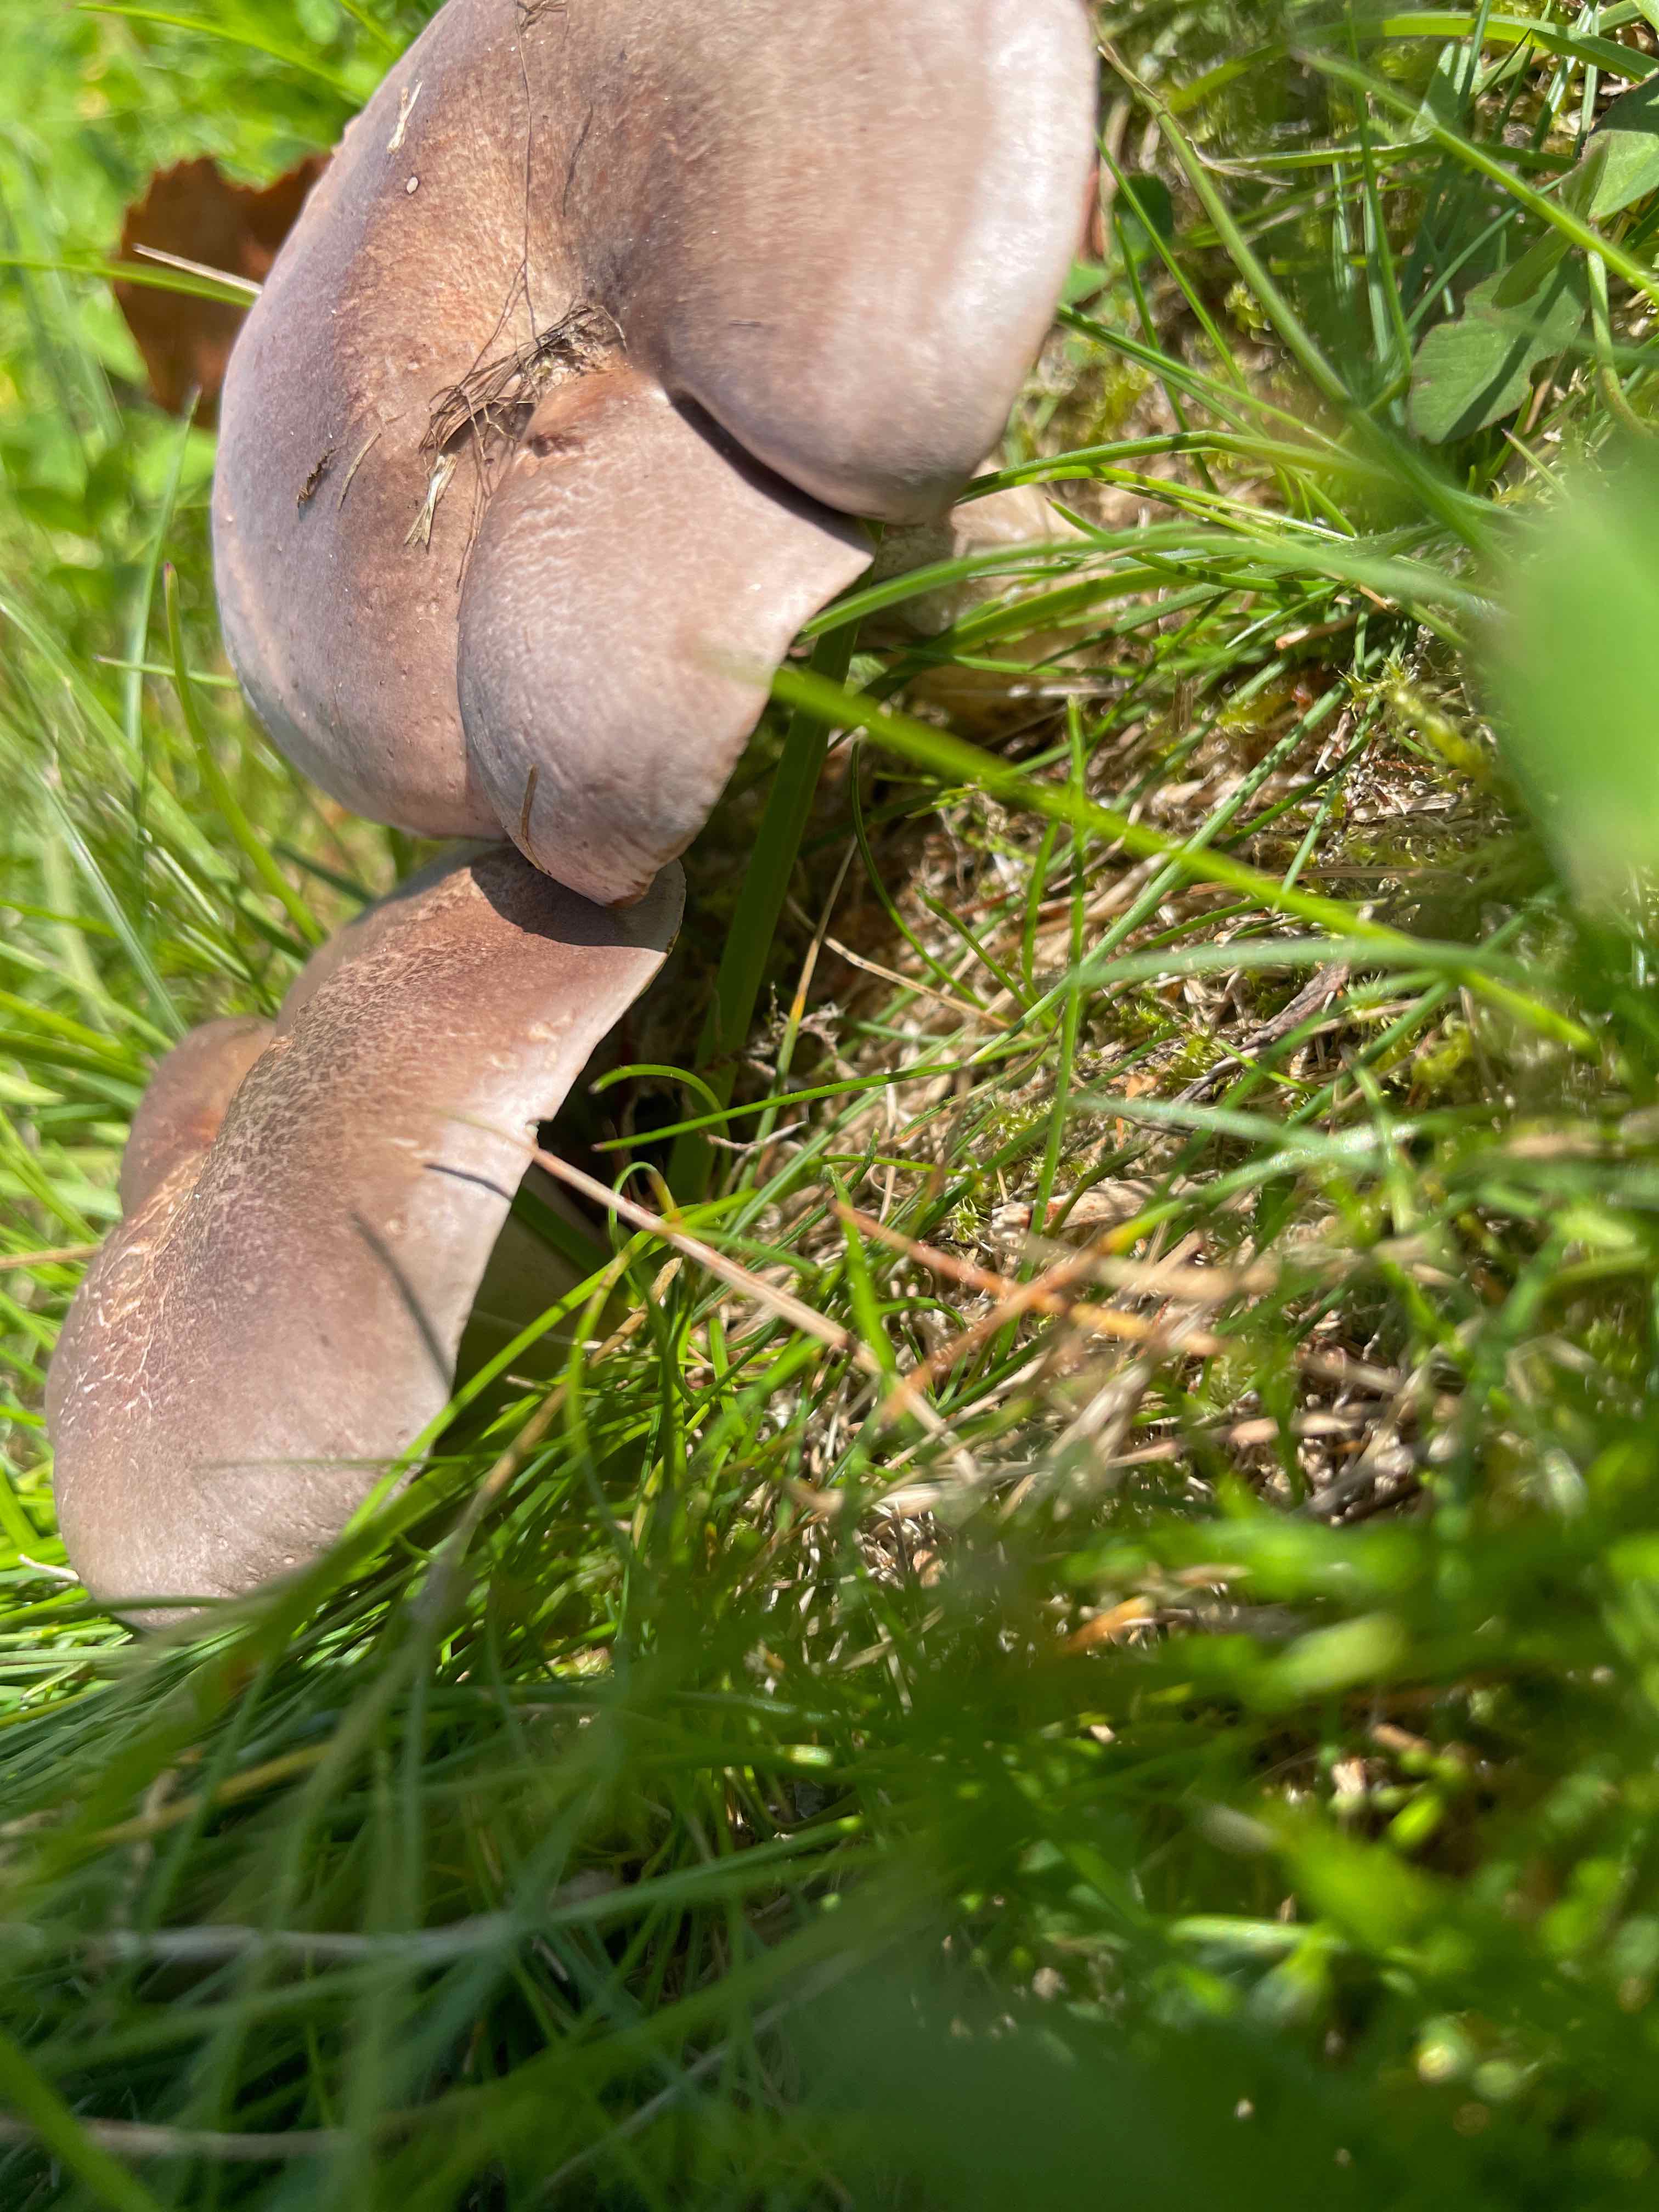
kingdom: Fungi
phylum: Basidiomycota
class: Agaricomycetes
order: Russulales
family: Russulaceae
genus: Lactarius
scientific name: Lactarius
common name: mælkehat
